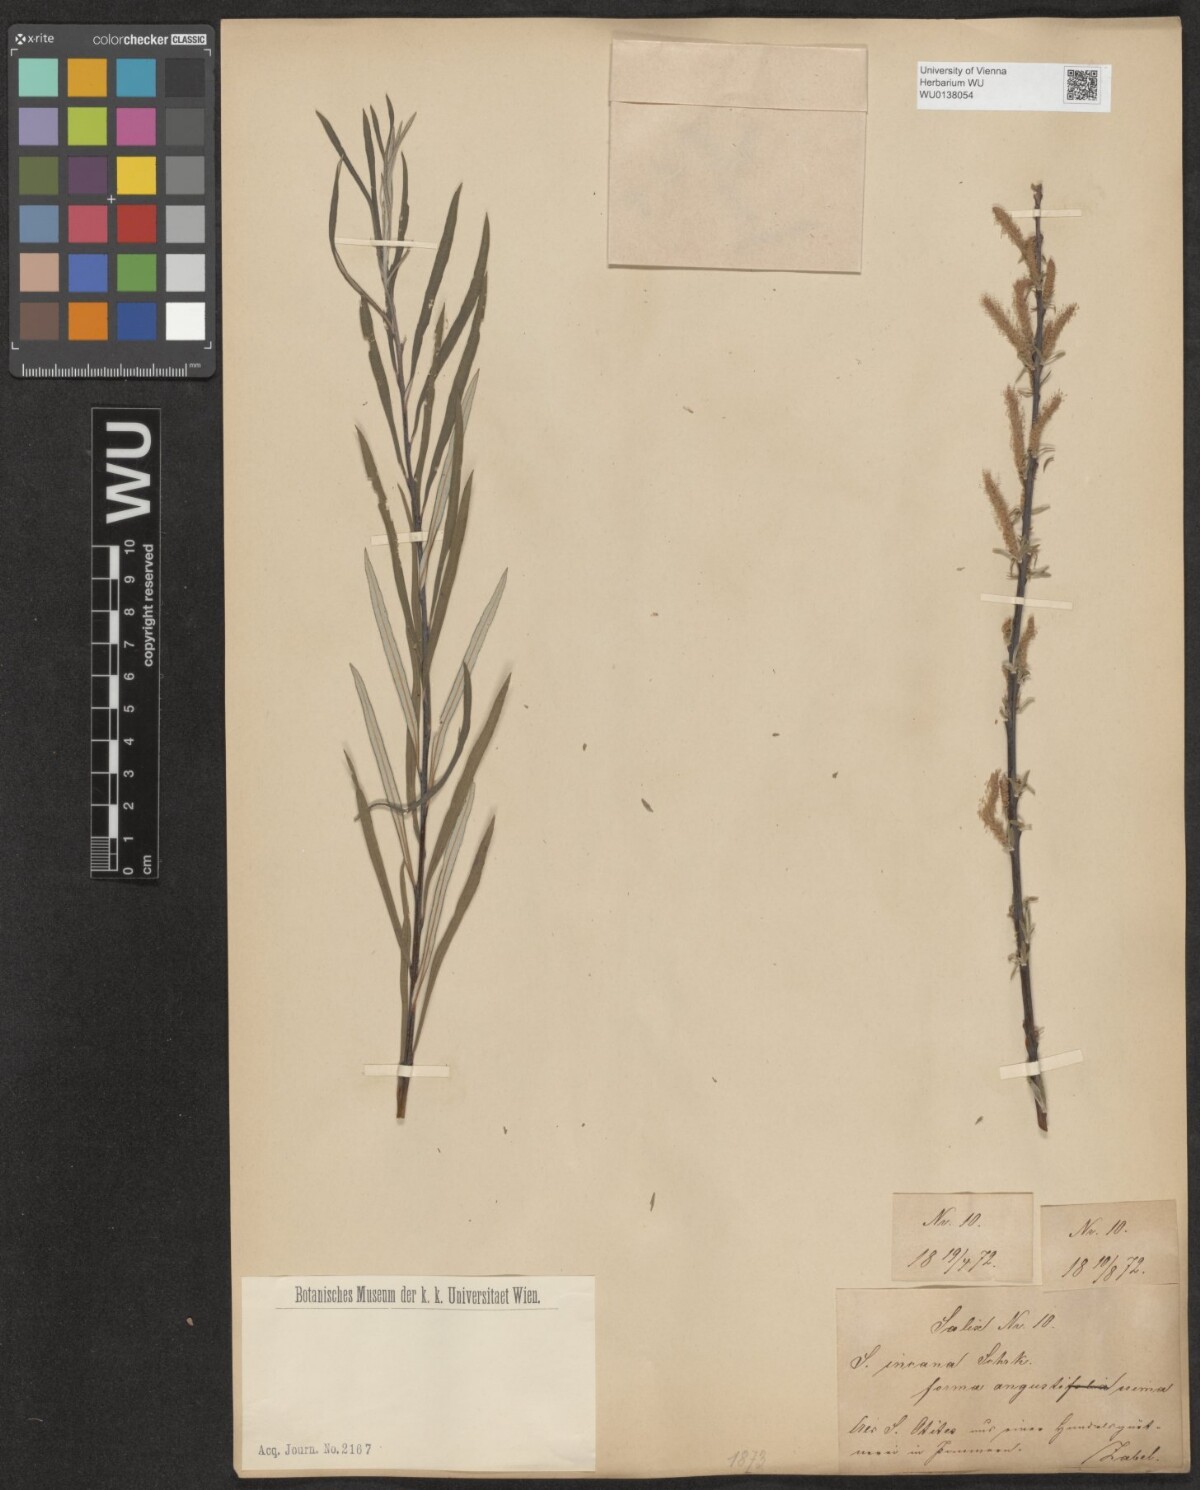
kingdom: Plantae
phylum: Tracheophyta
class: Magnoliopsida
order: Malpighiales
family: Salicaceae
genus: Salix
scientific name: Salix eleagnos
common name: Elaeagnus willow
